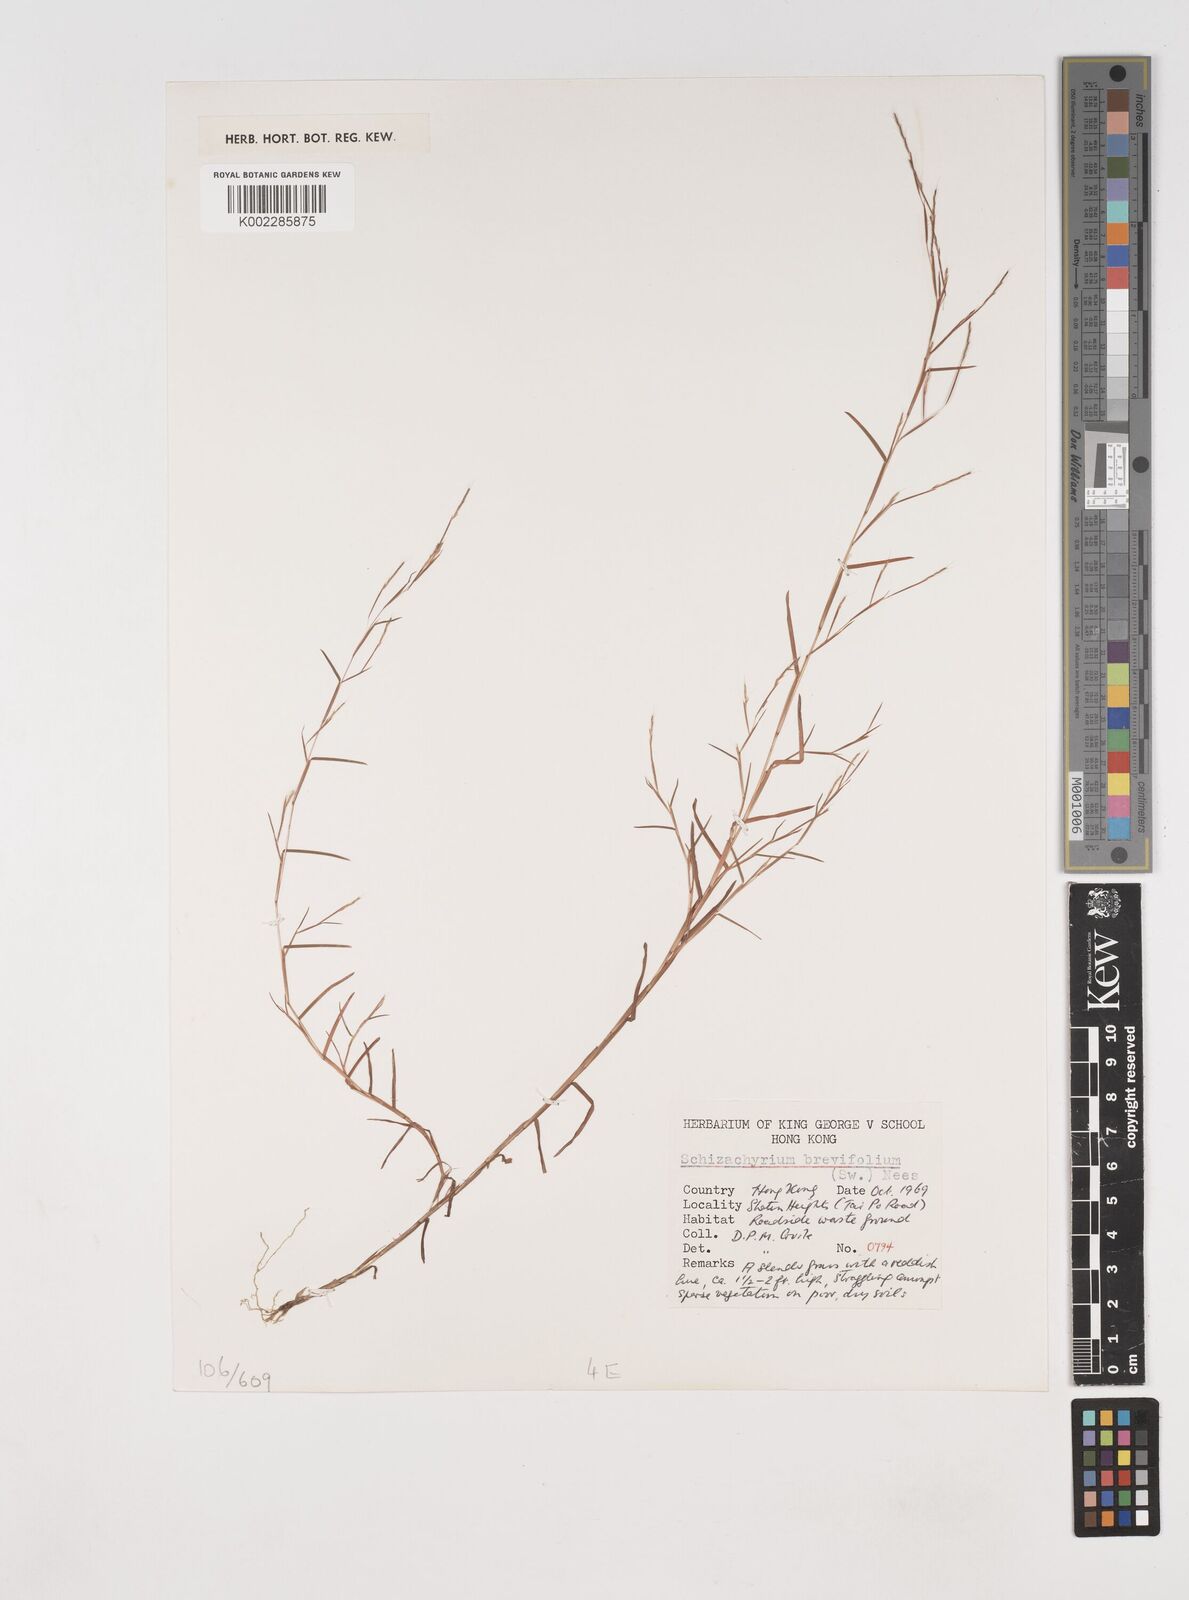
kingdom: Plantae
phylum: Tracheophyta
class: Liliopsida
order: Poales
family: Poaceae
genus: Schizachyrium
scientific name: Schizachyrium brevifolium
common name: Serillo dulce
